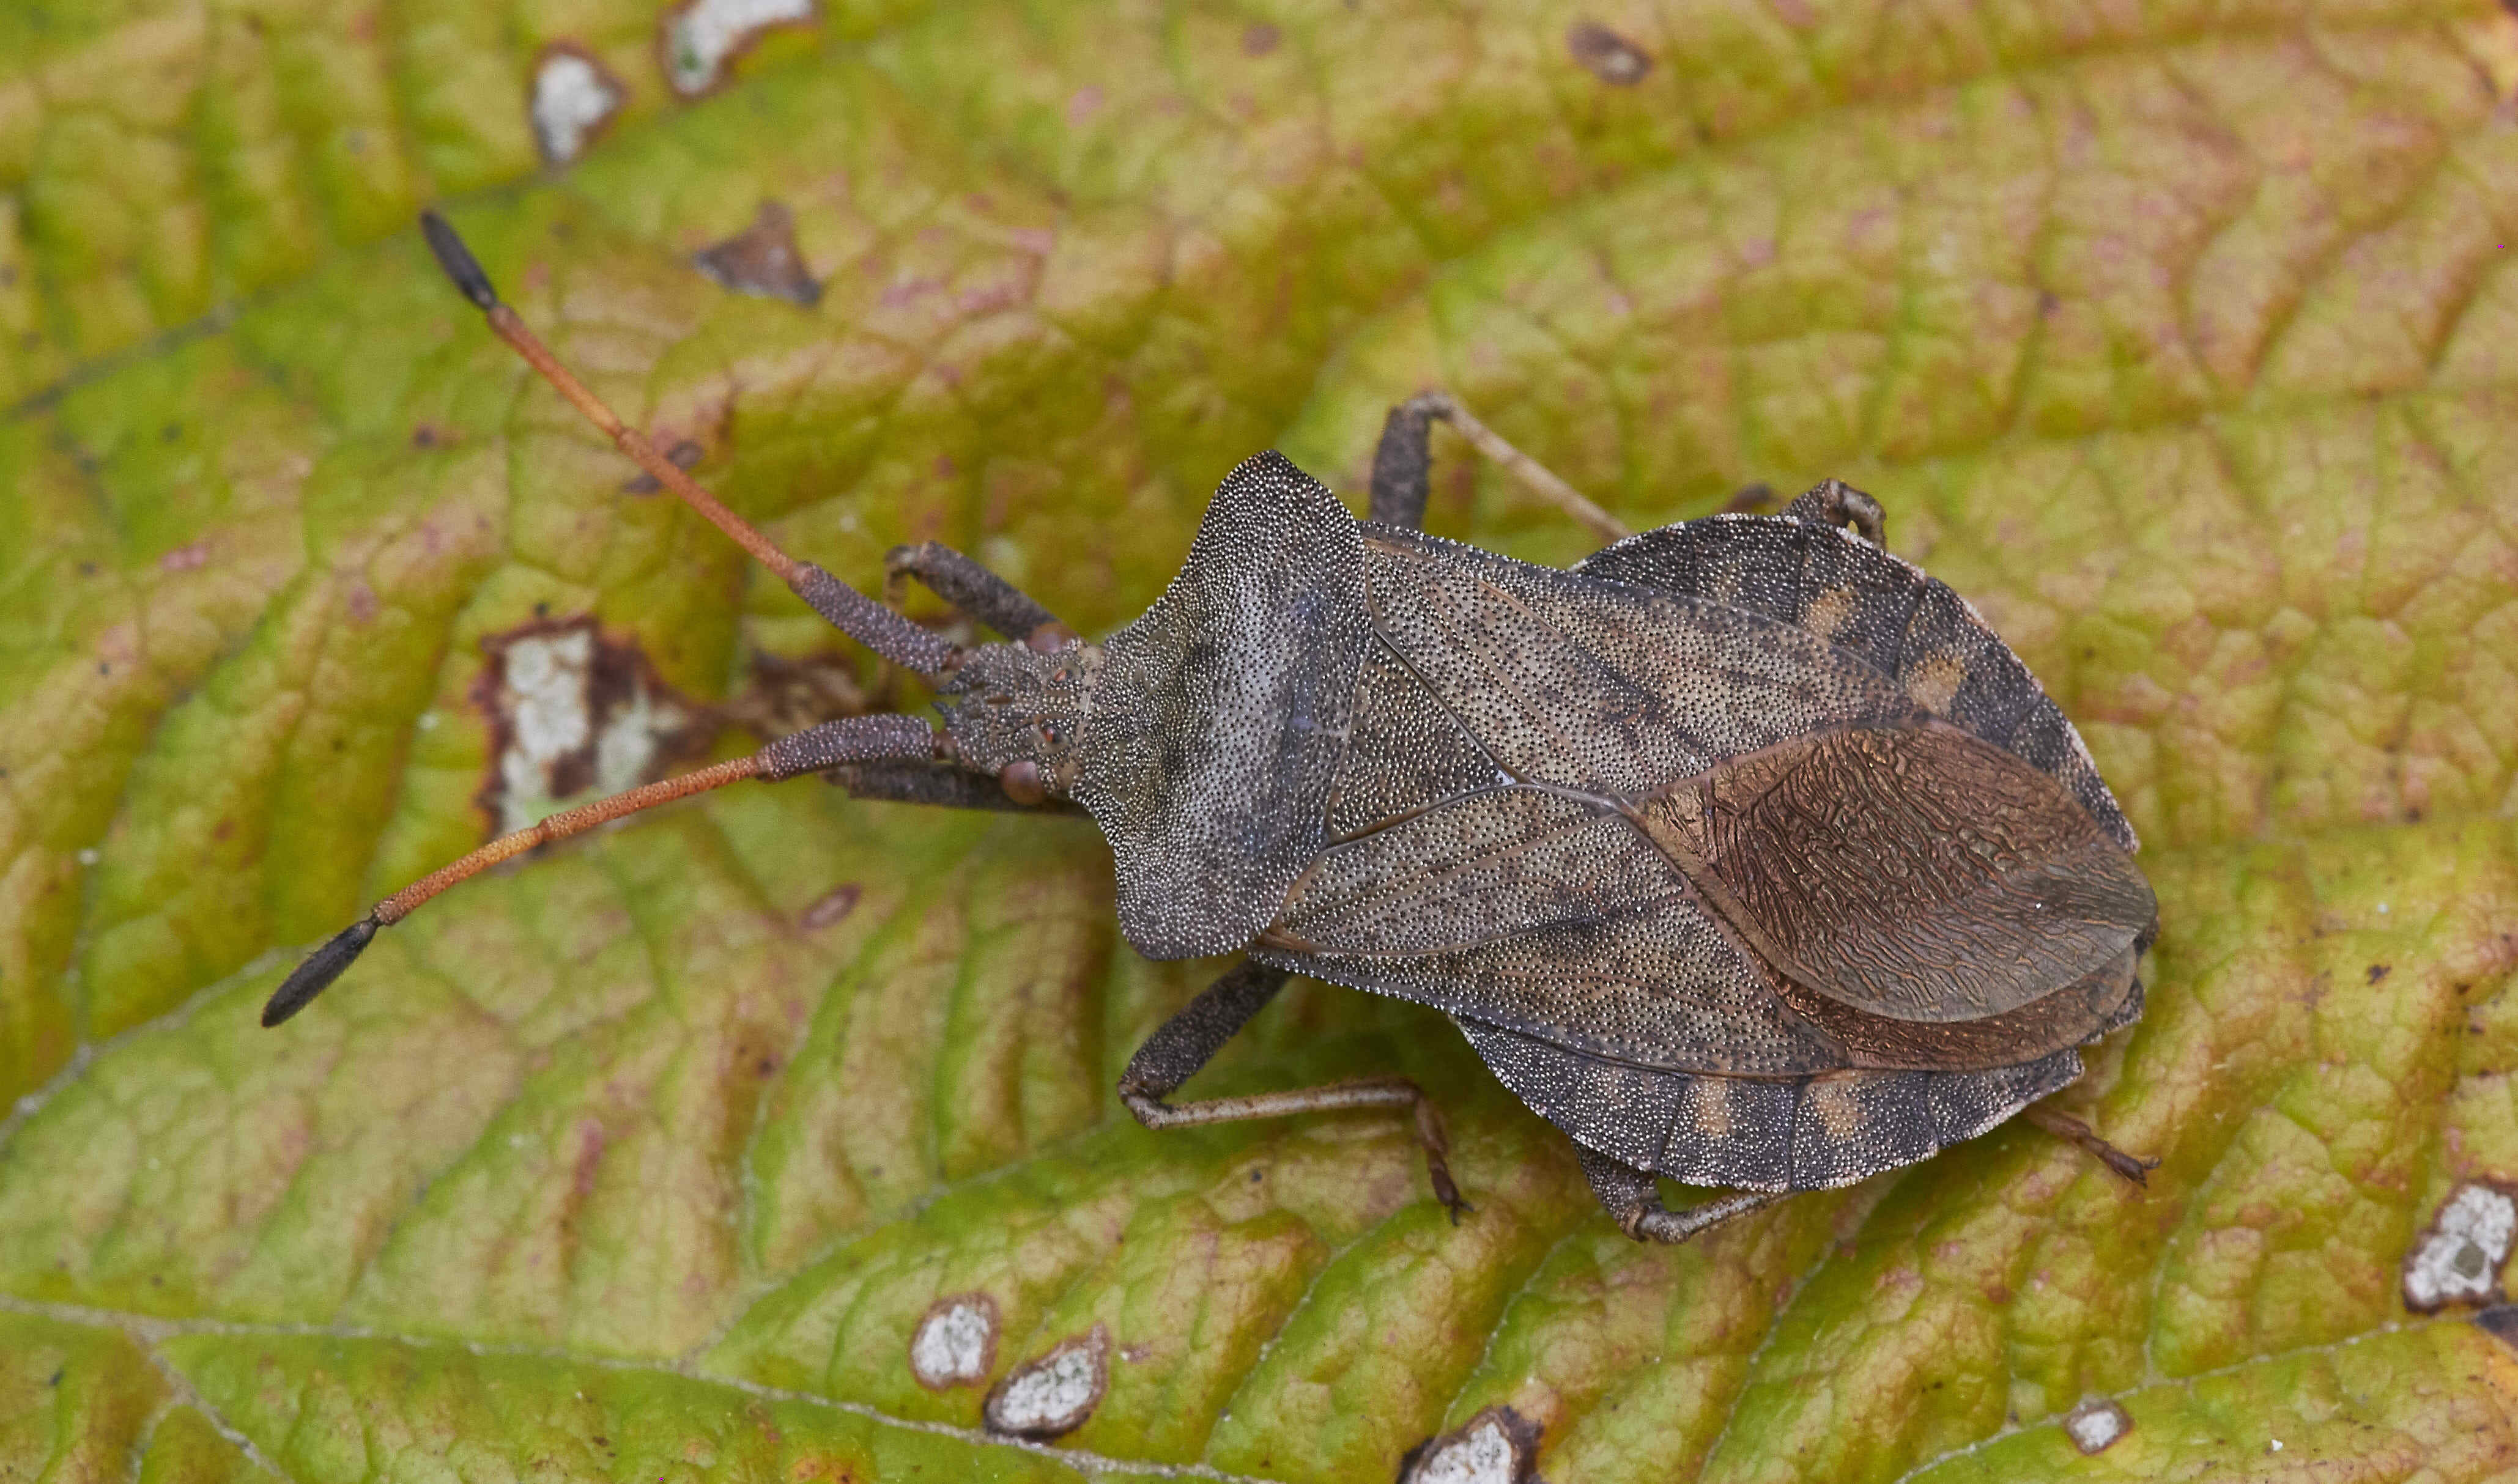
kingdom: Animalia
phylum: Arthropoda
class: Insecta
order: Hemiptera
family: Coreidae
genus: Coreus
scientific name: Coreus marginatus
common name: Dock bug
